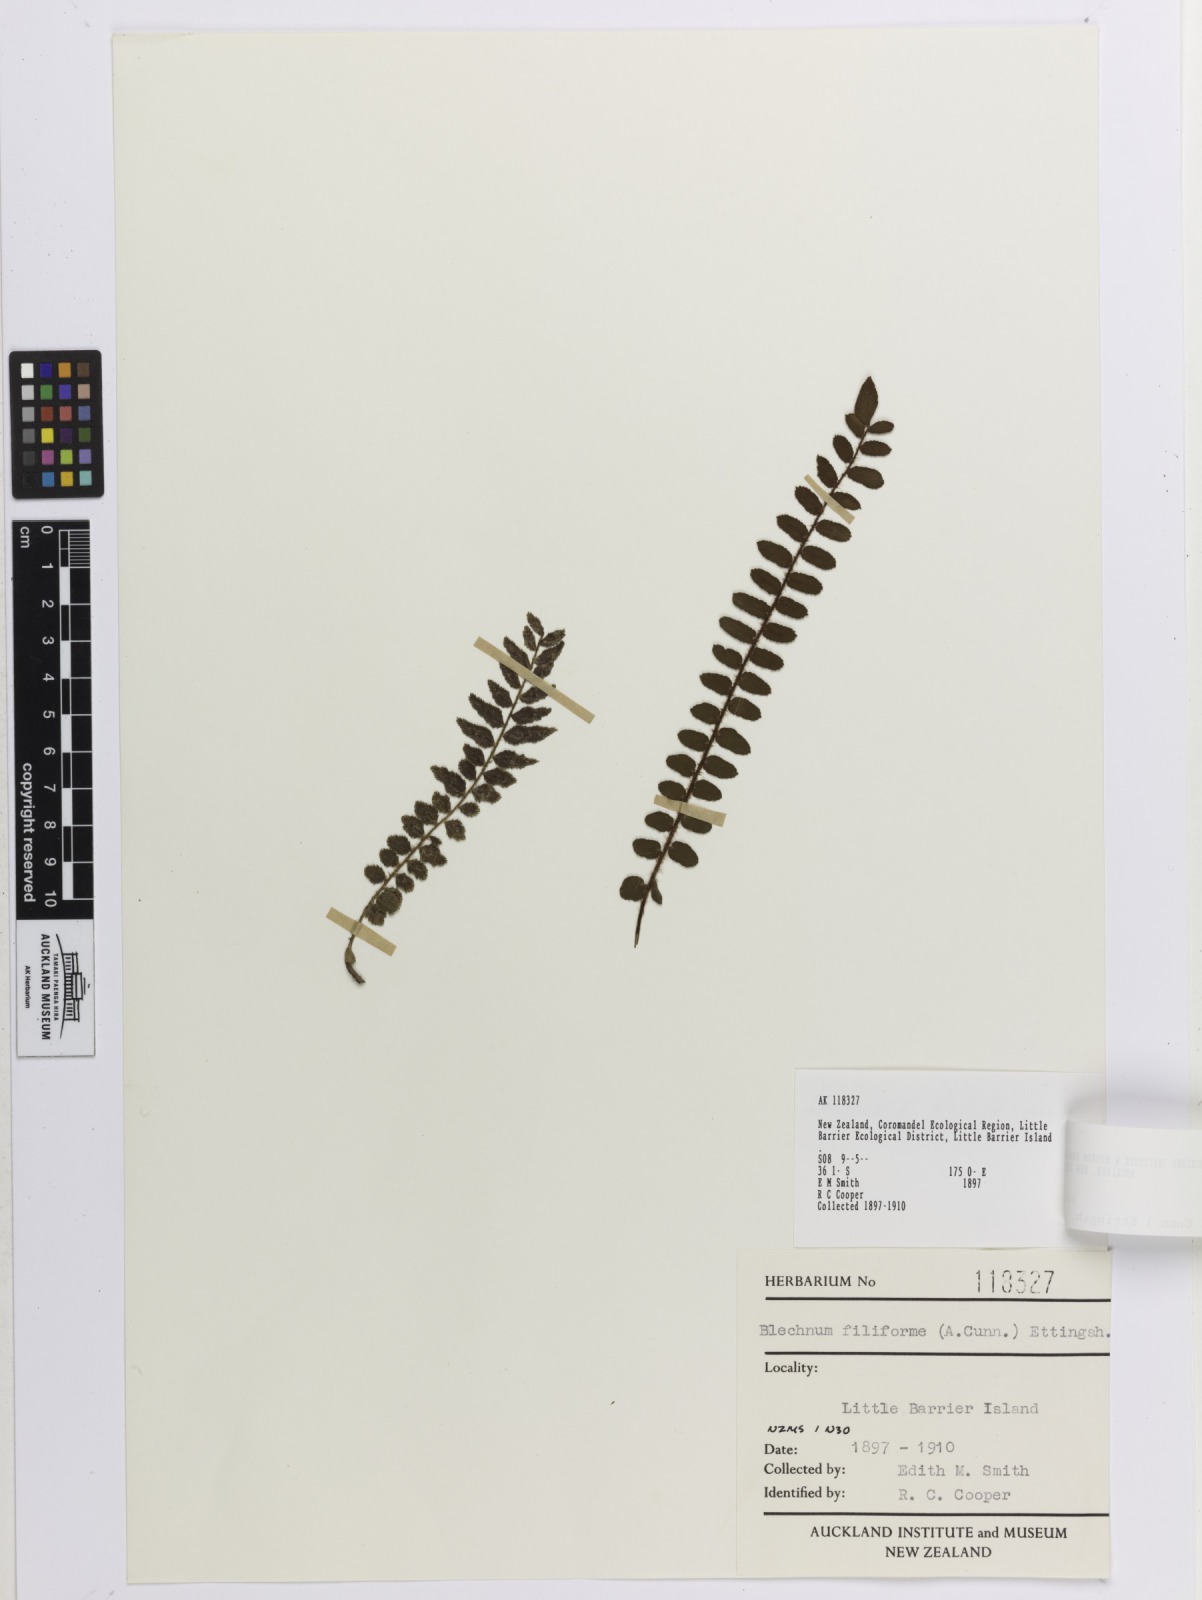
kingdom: Plantae
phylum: Tracheophyta
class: Polypodiopsida
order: Polypodiales
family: Blechnaceae
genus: Icarus
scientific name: Icarus filiformis
